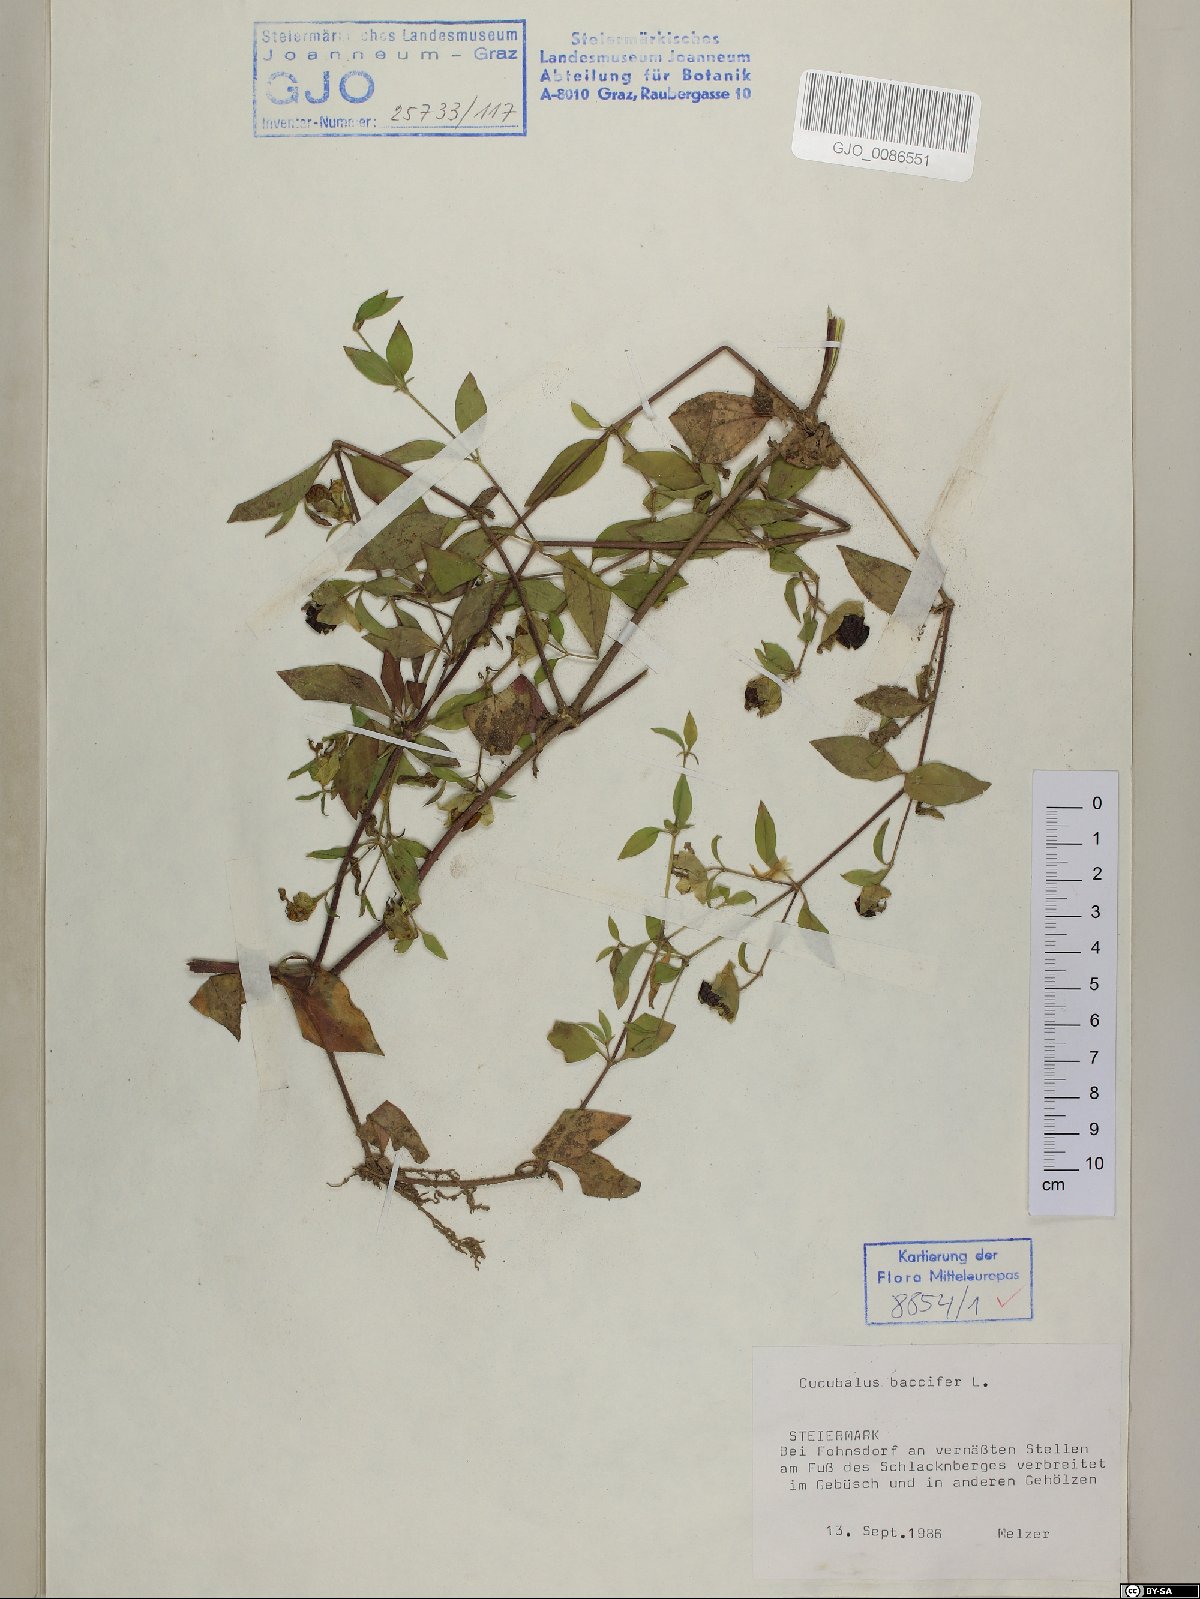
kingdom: Plantae
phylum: Tracheophyta
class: Magnoliopsida
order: Caryophyllales
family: Caryophyllaceae
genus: Silene
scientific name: Silene baccifera
